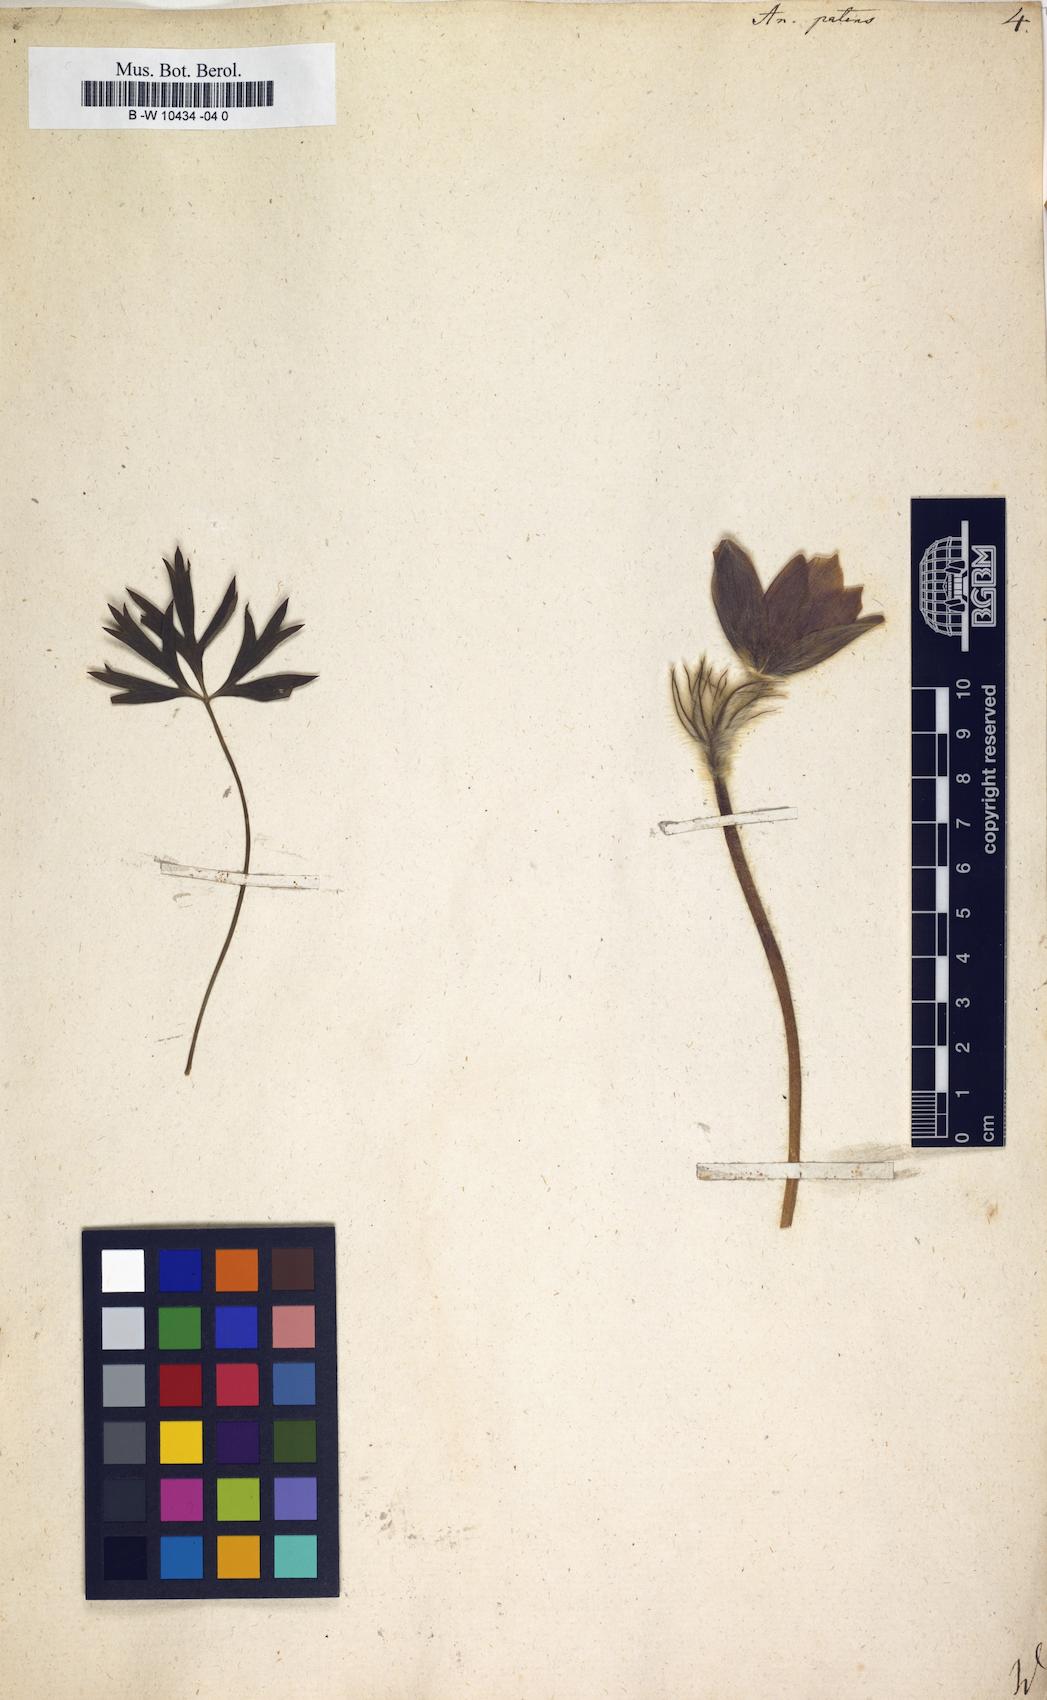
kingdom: Plantae
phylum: Tracheophyta
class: Magnoliopsida
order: Ranunculales
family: Ranunculaceae
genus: Pulsatilla
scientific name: Pulsatilla patens
